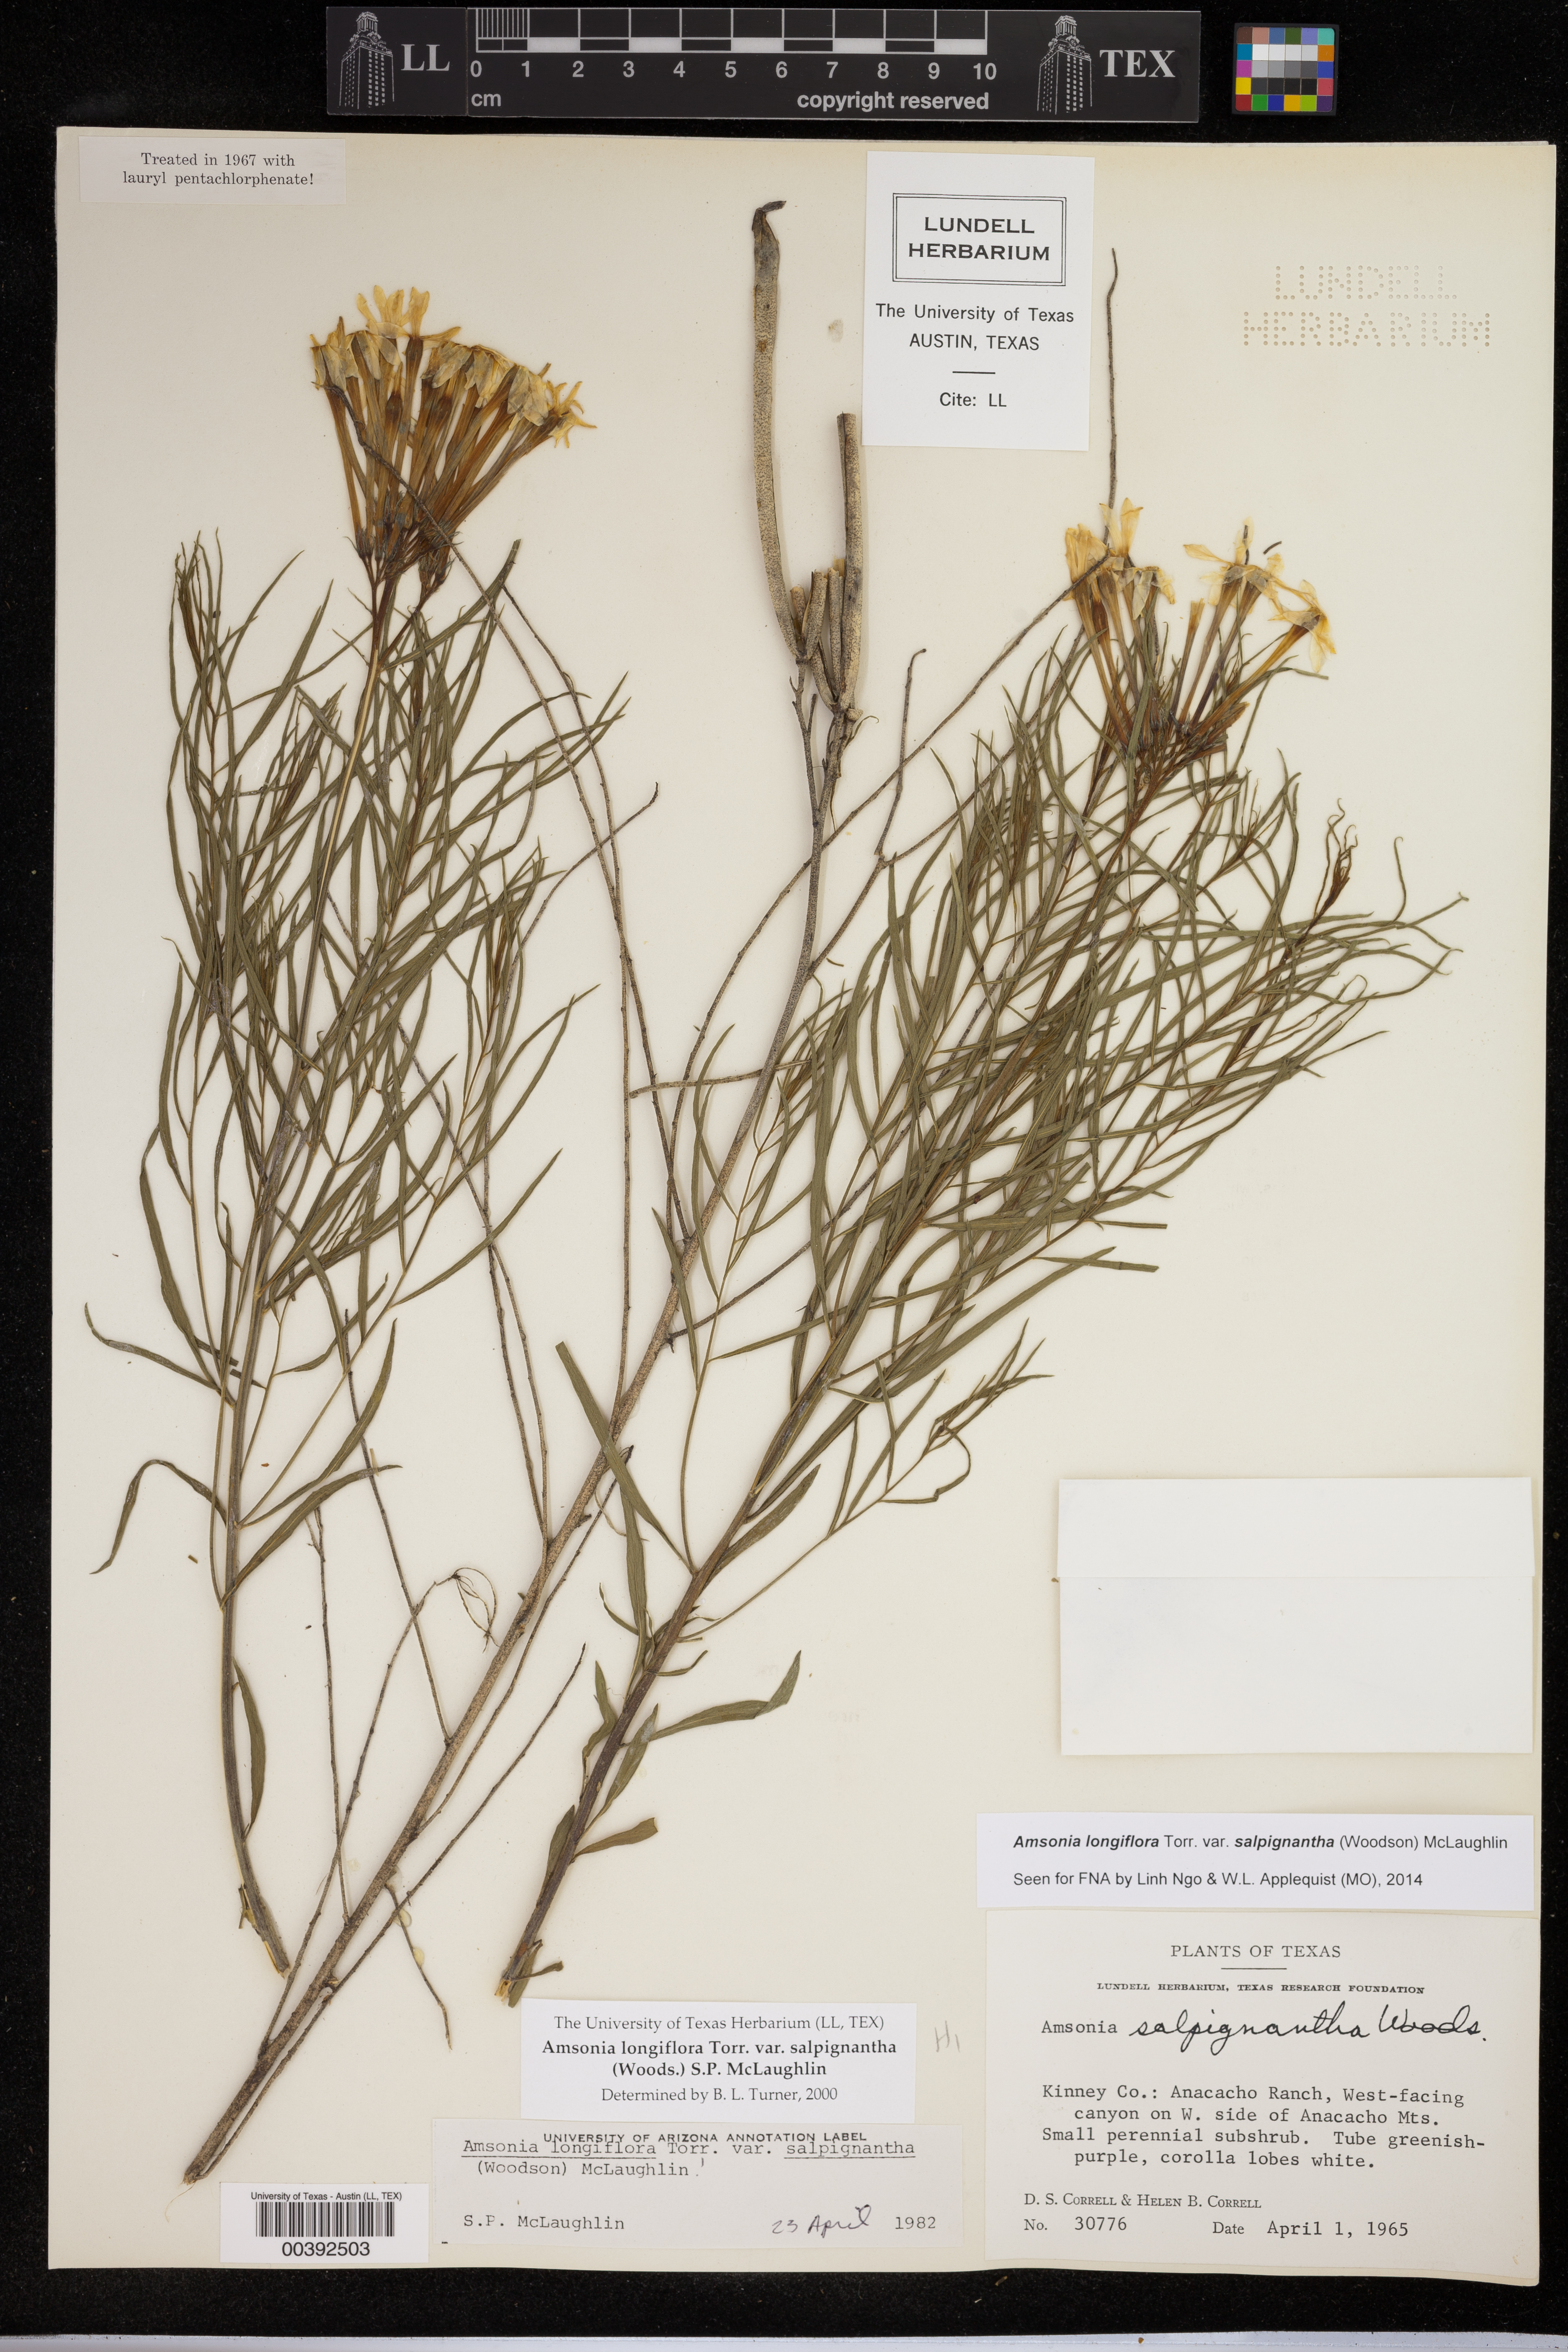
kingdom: Plantae
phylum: Tracheophyta
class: Magnoliopsida
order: Gentianales
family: Apocynaceae
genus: Amsonia
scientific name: Amsonia longiflora
